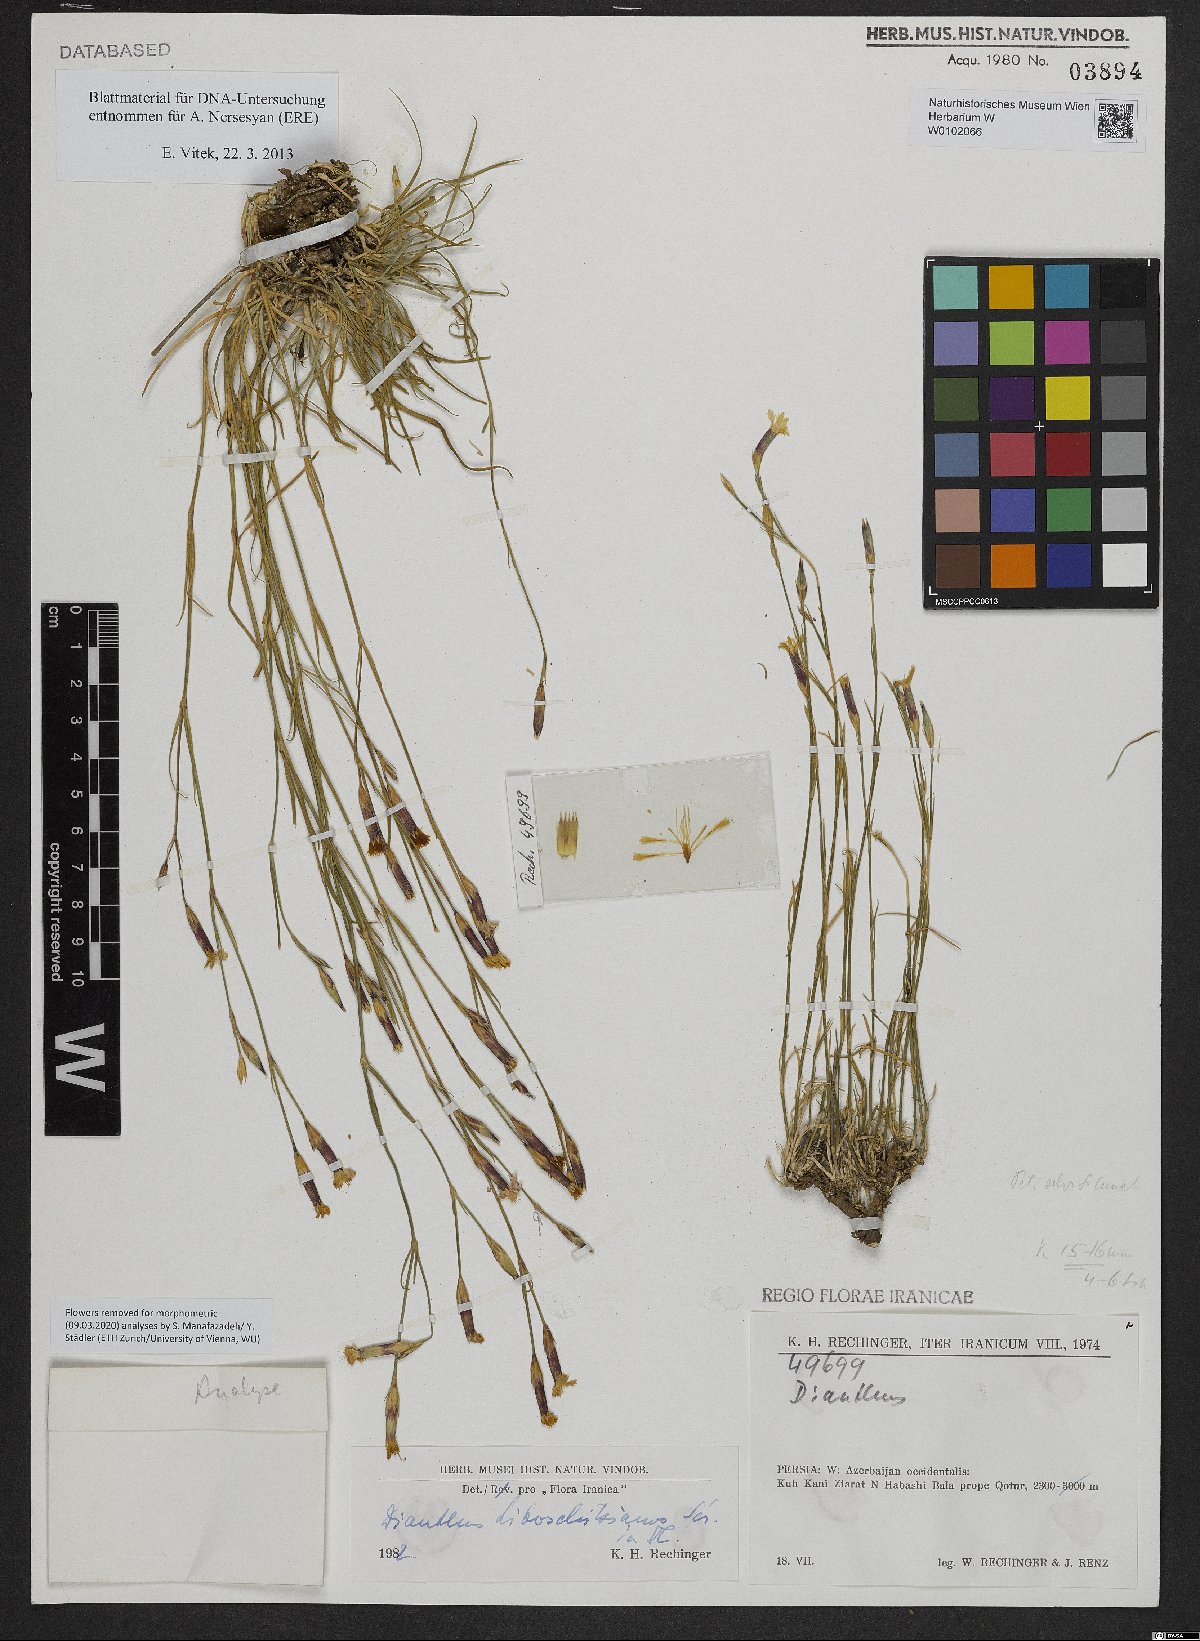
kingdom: Plantae
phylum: Tracheophyta
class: Magnoliopsida
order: Caryophyllales
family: Caryophyllaceae
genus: Dianthus
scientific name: Dianthus cretaceus
